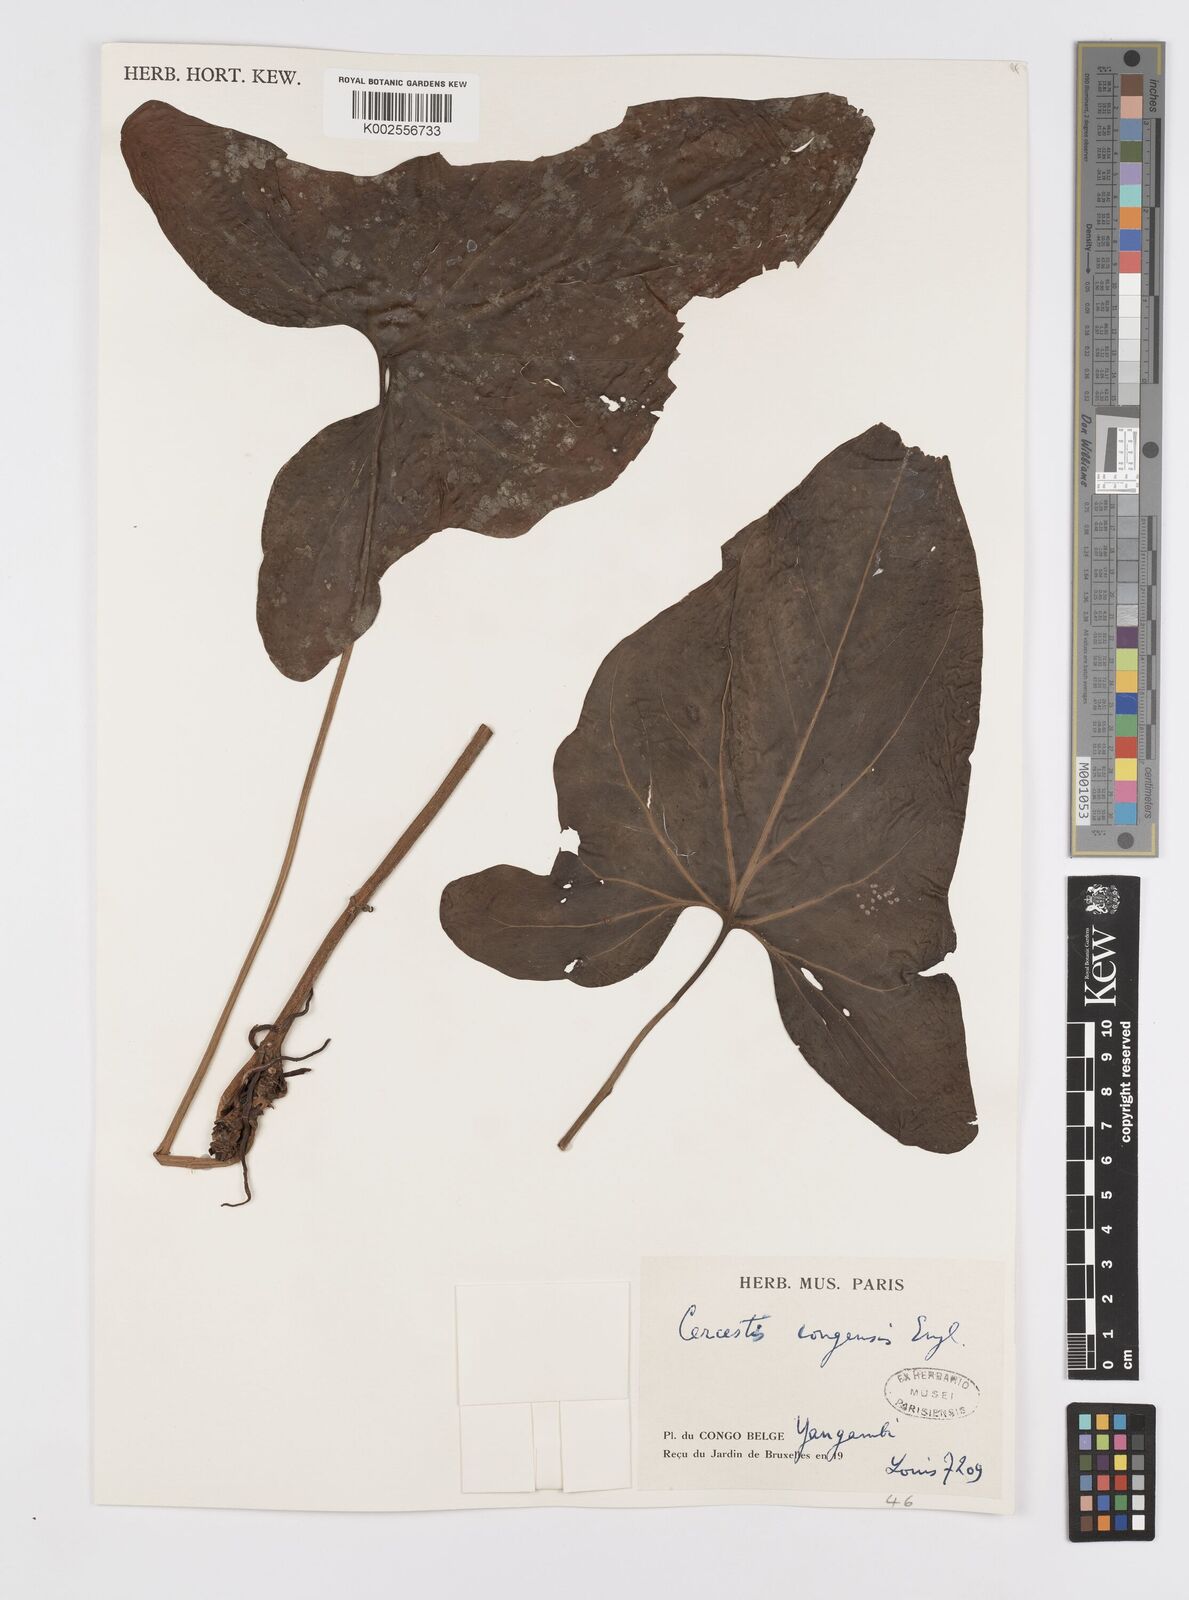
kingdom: Plantae
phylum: Tracheophyta
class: Liliopsida
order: Alismatales
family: Araceae
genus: Cercestis
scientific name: Cercestis congoensis
